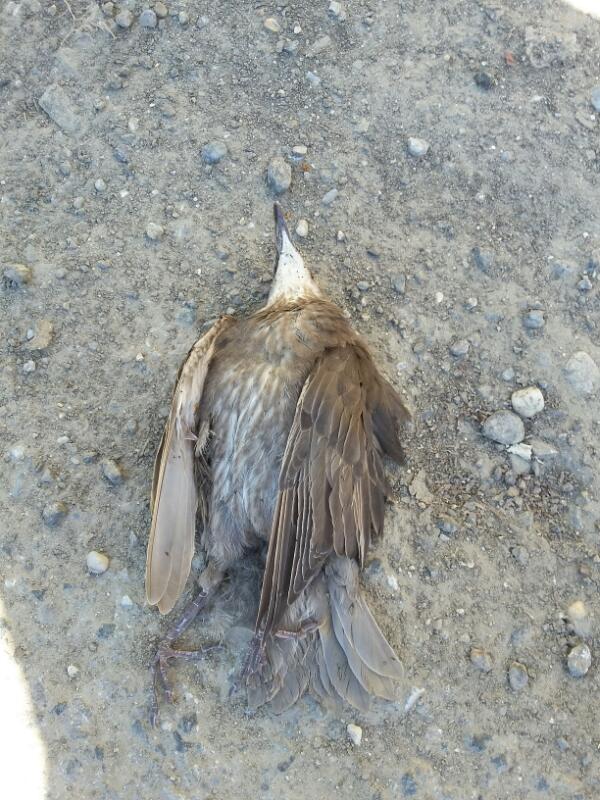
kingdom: Animalia
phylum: Chordata
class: Aves
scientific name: Aves
